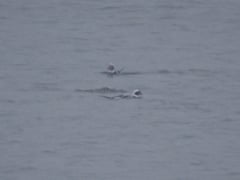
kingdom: Animalia
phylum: Chordata
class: Aves
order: Anseriformes
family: Anatidae
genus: Clangula
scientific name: Clangula hyemalis
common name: Long-tailed duck
